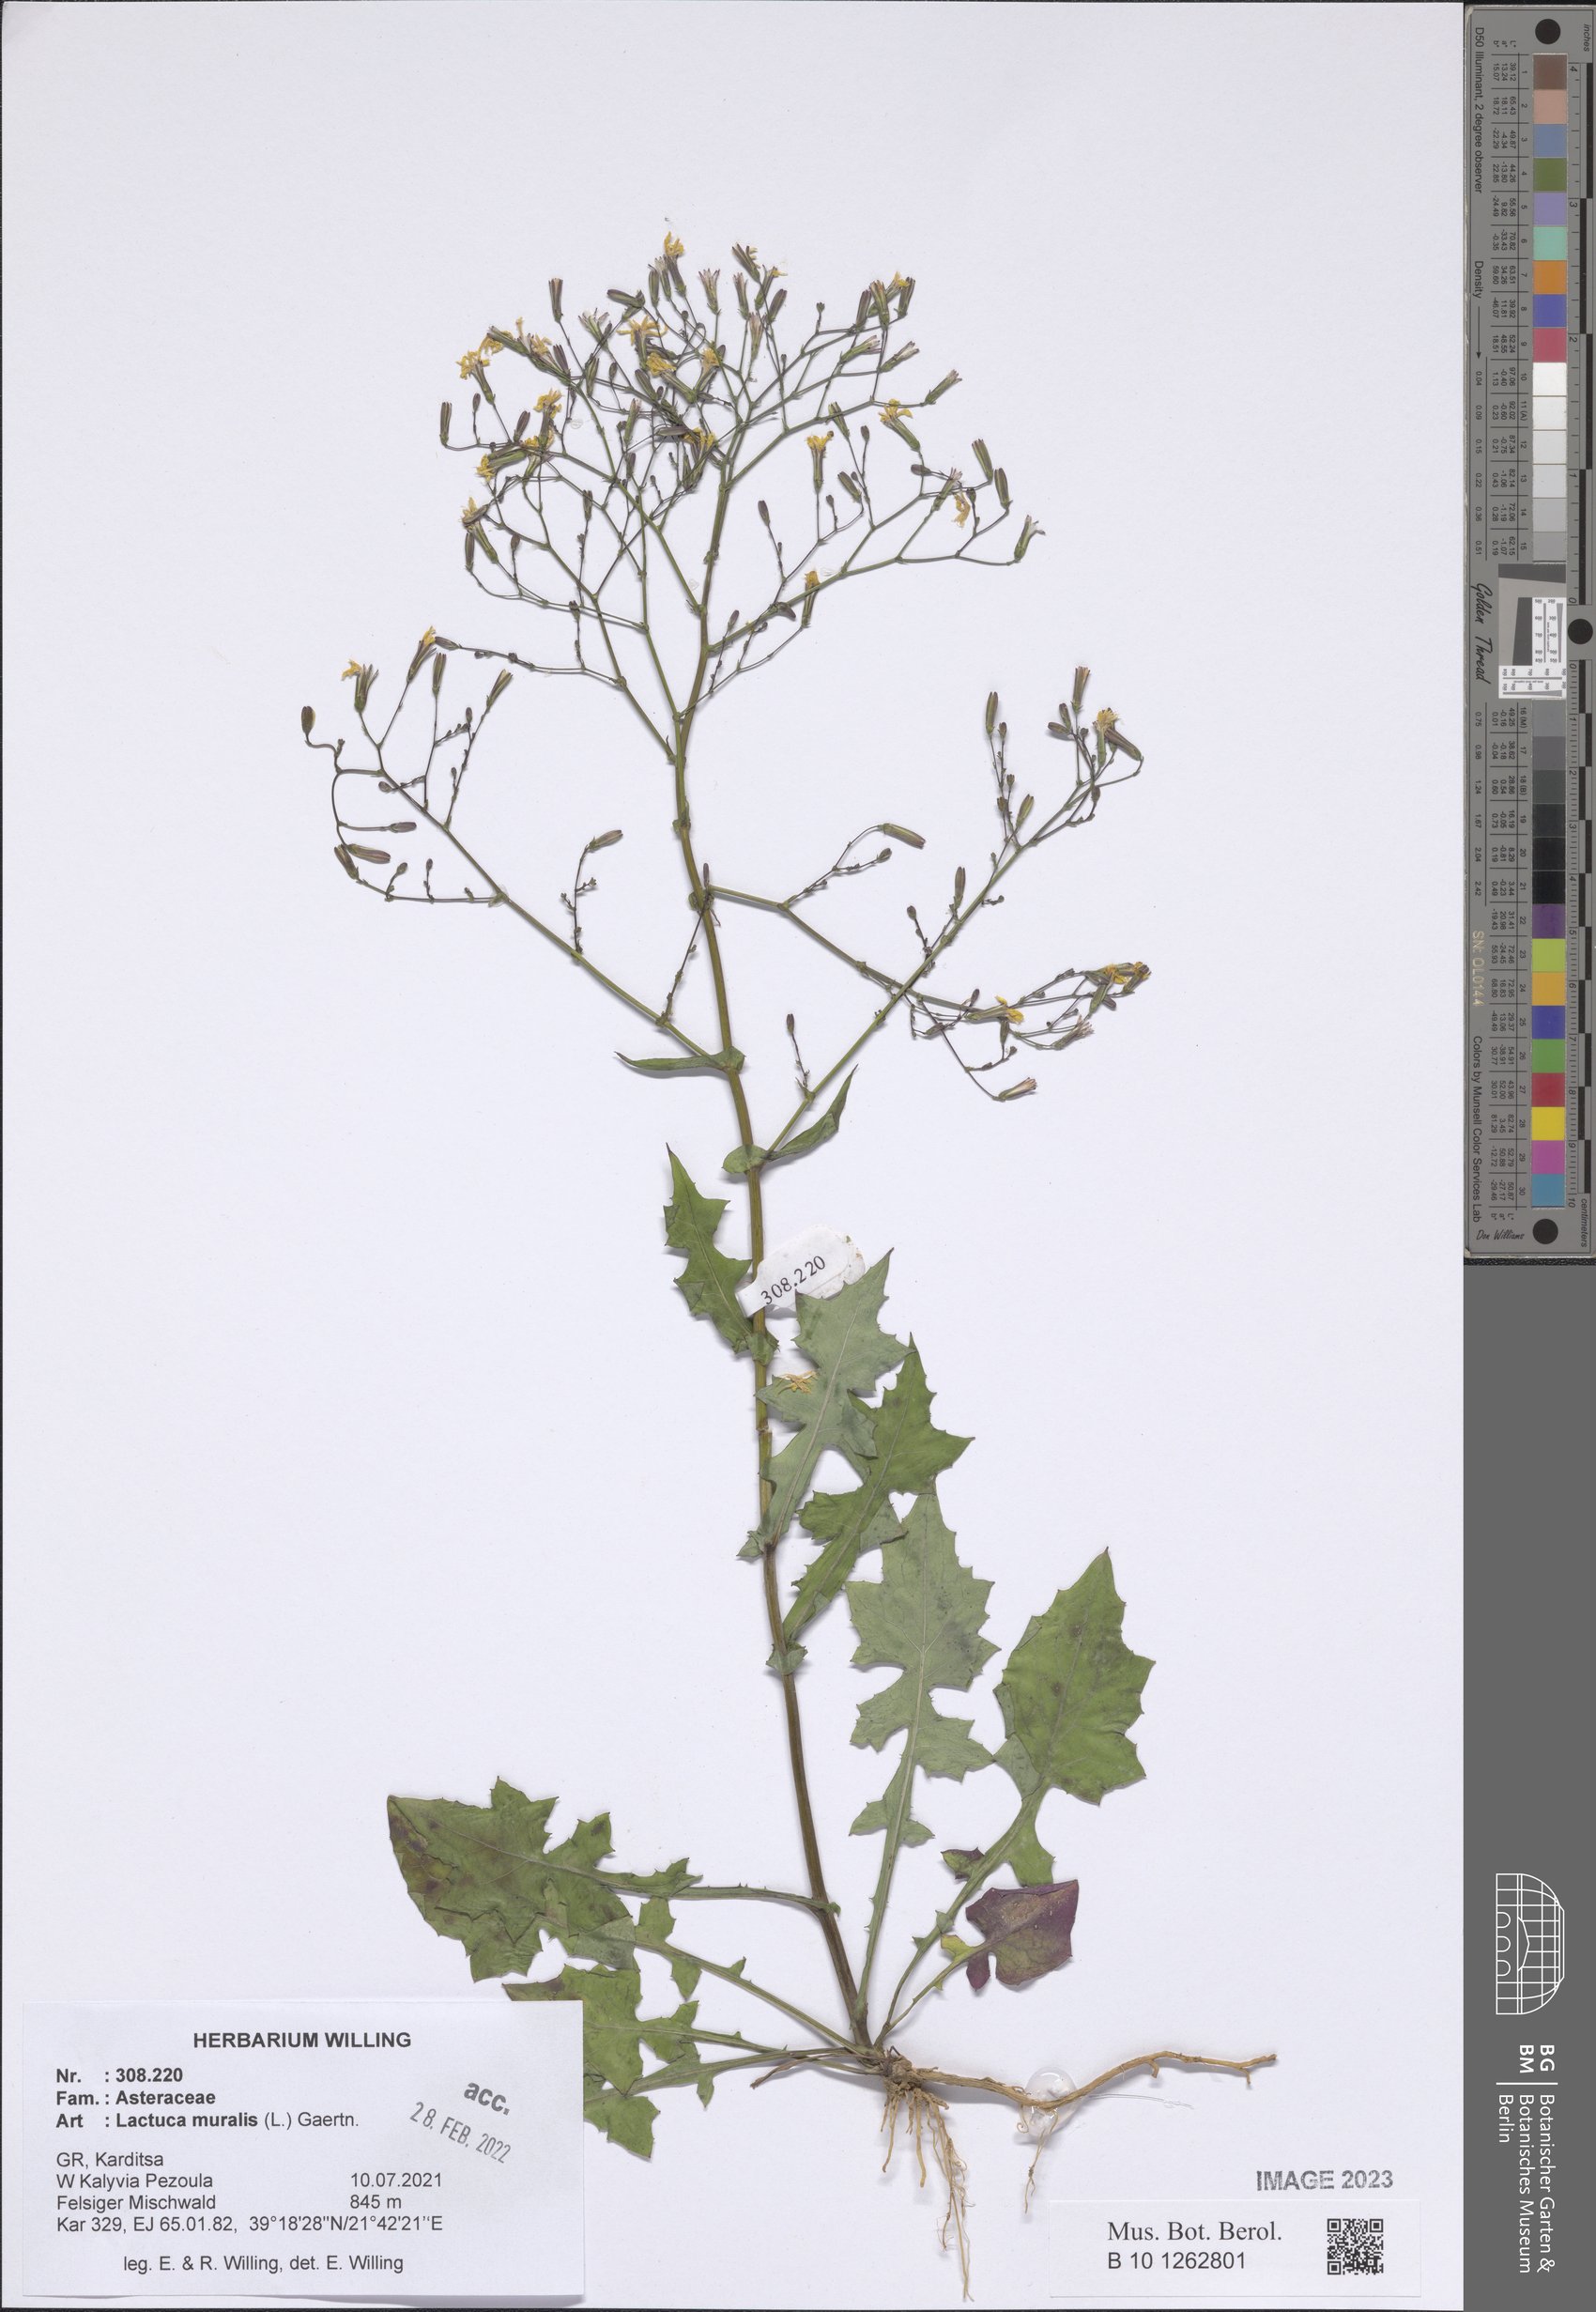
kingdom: Plantae
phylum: Tracheophyta
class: Magnoliopsida
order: Asterales
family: Asteraceae
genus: Mycelis
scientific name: Mycelis muralis
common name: Wall lettuce
